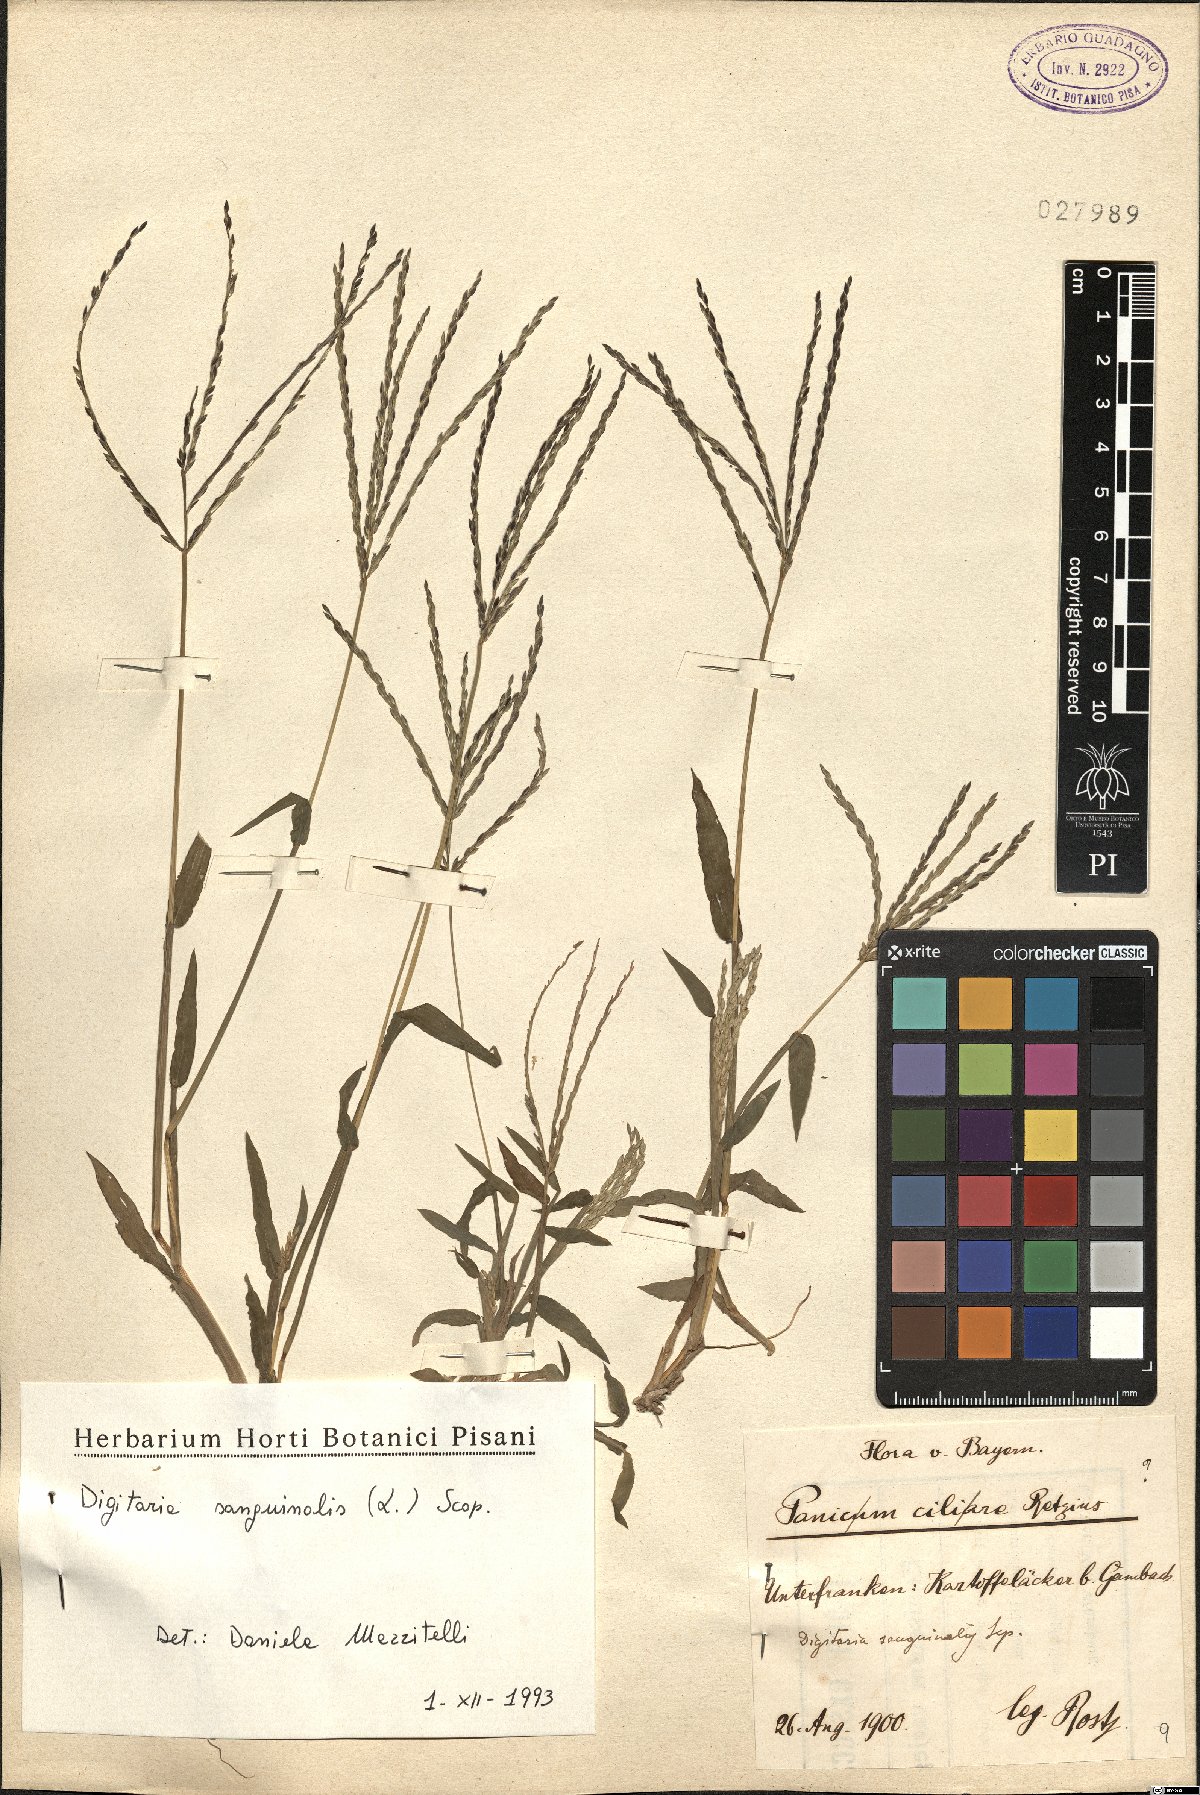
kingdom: Plantae
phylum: Tracheophyta
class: Liliopsida
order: Poales
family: Poaceae
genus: Digitaria
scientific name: Digitaria sanguinalis
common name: Hairy crabgrass
